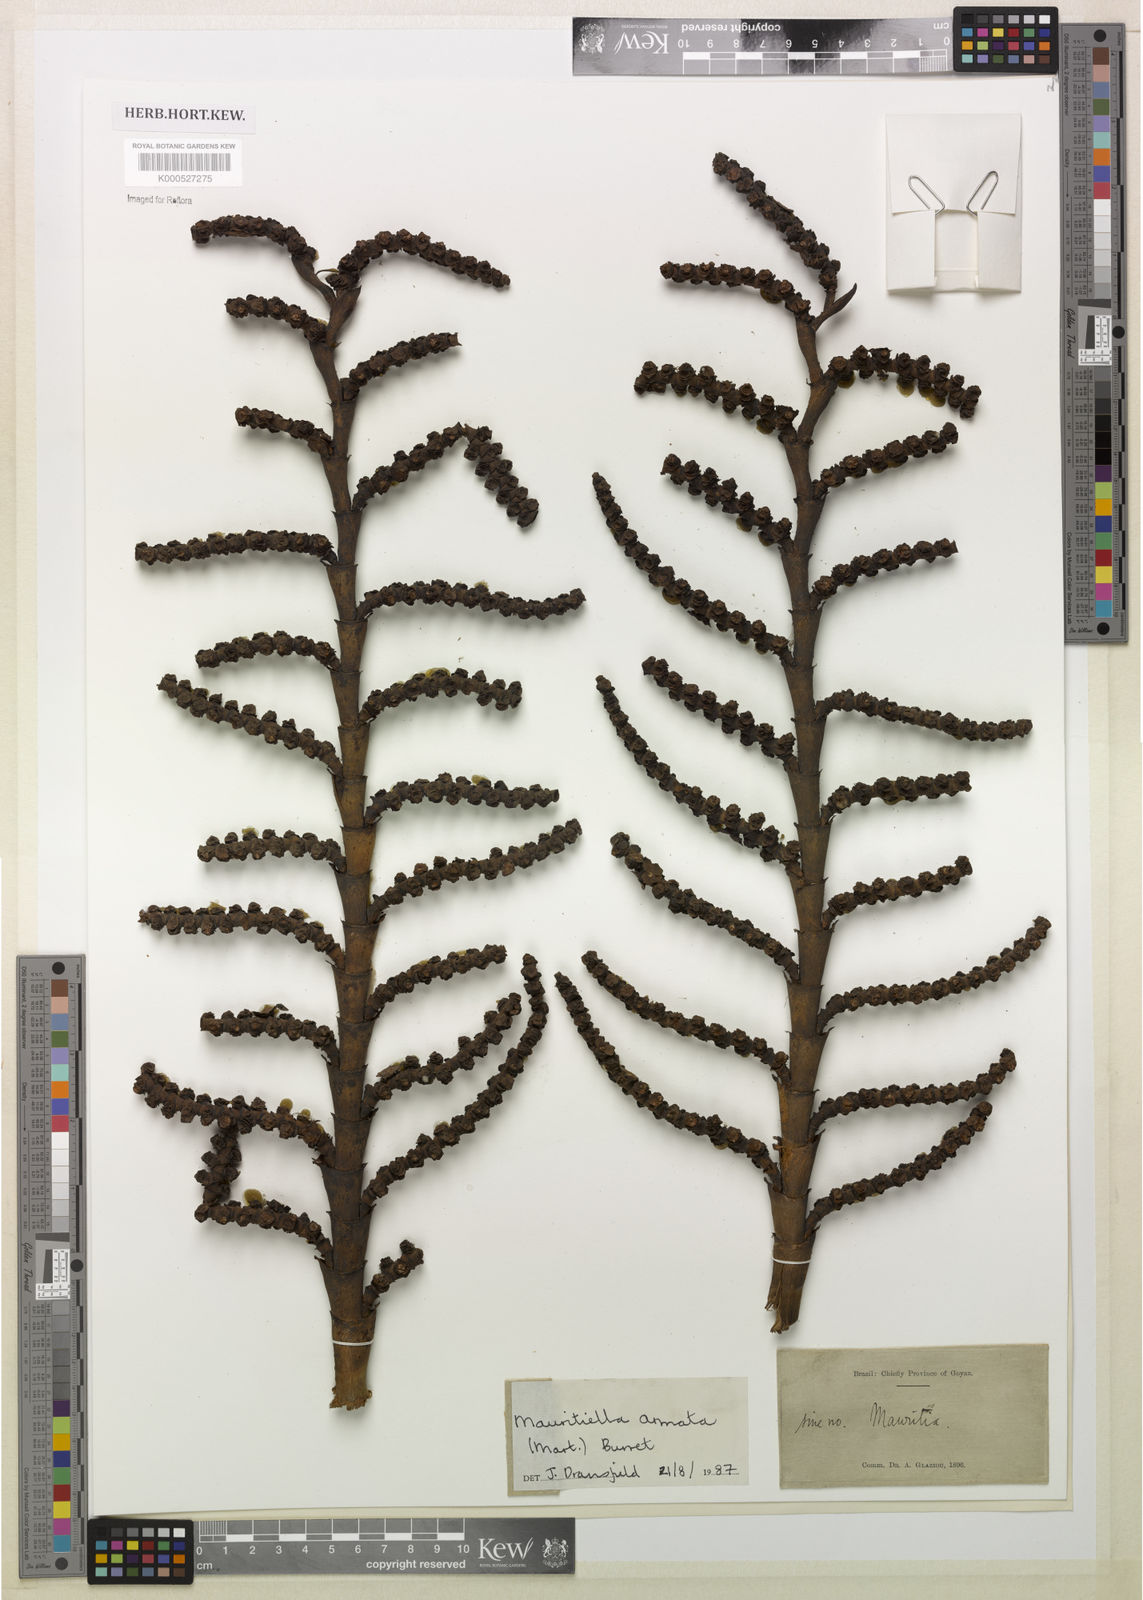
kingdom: Plantae
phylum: Tracheophyta
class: Liliopsida
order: Arecales
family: Arecaceae
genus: Mauritiella
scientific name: Mauritiella armata
